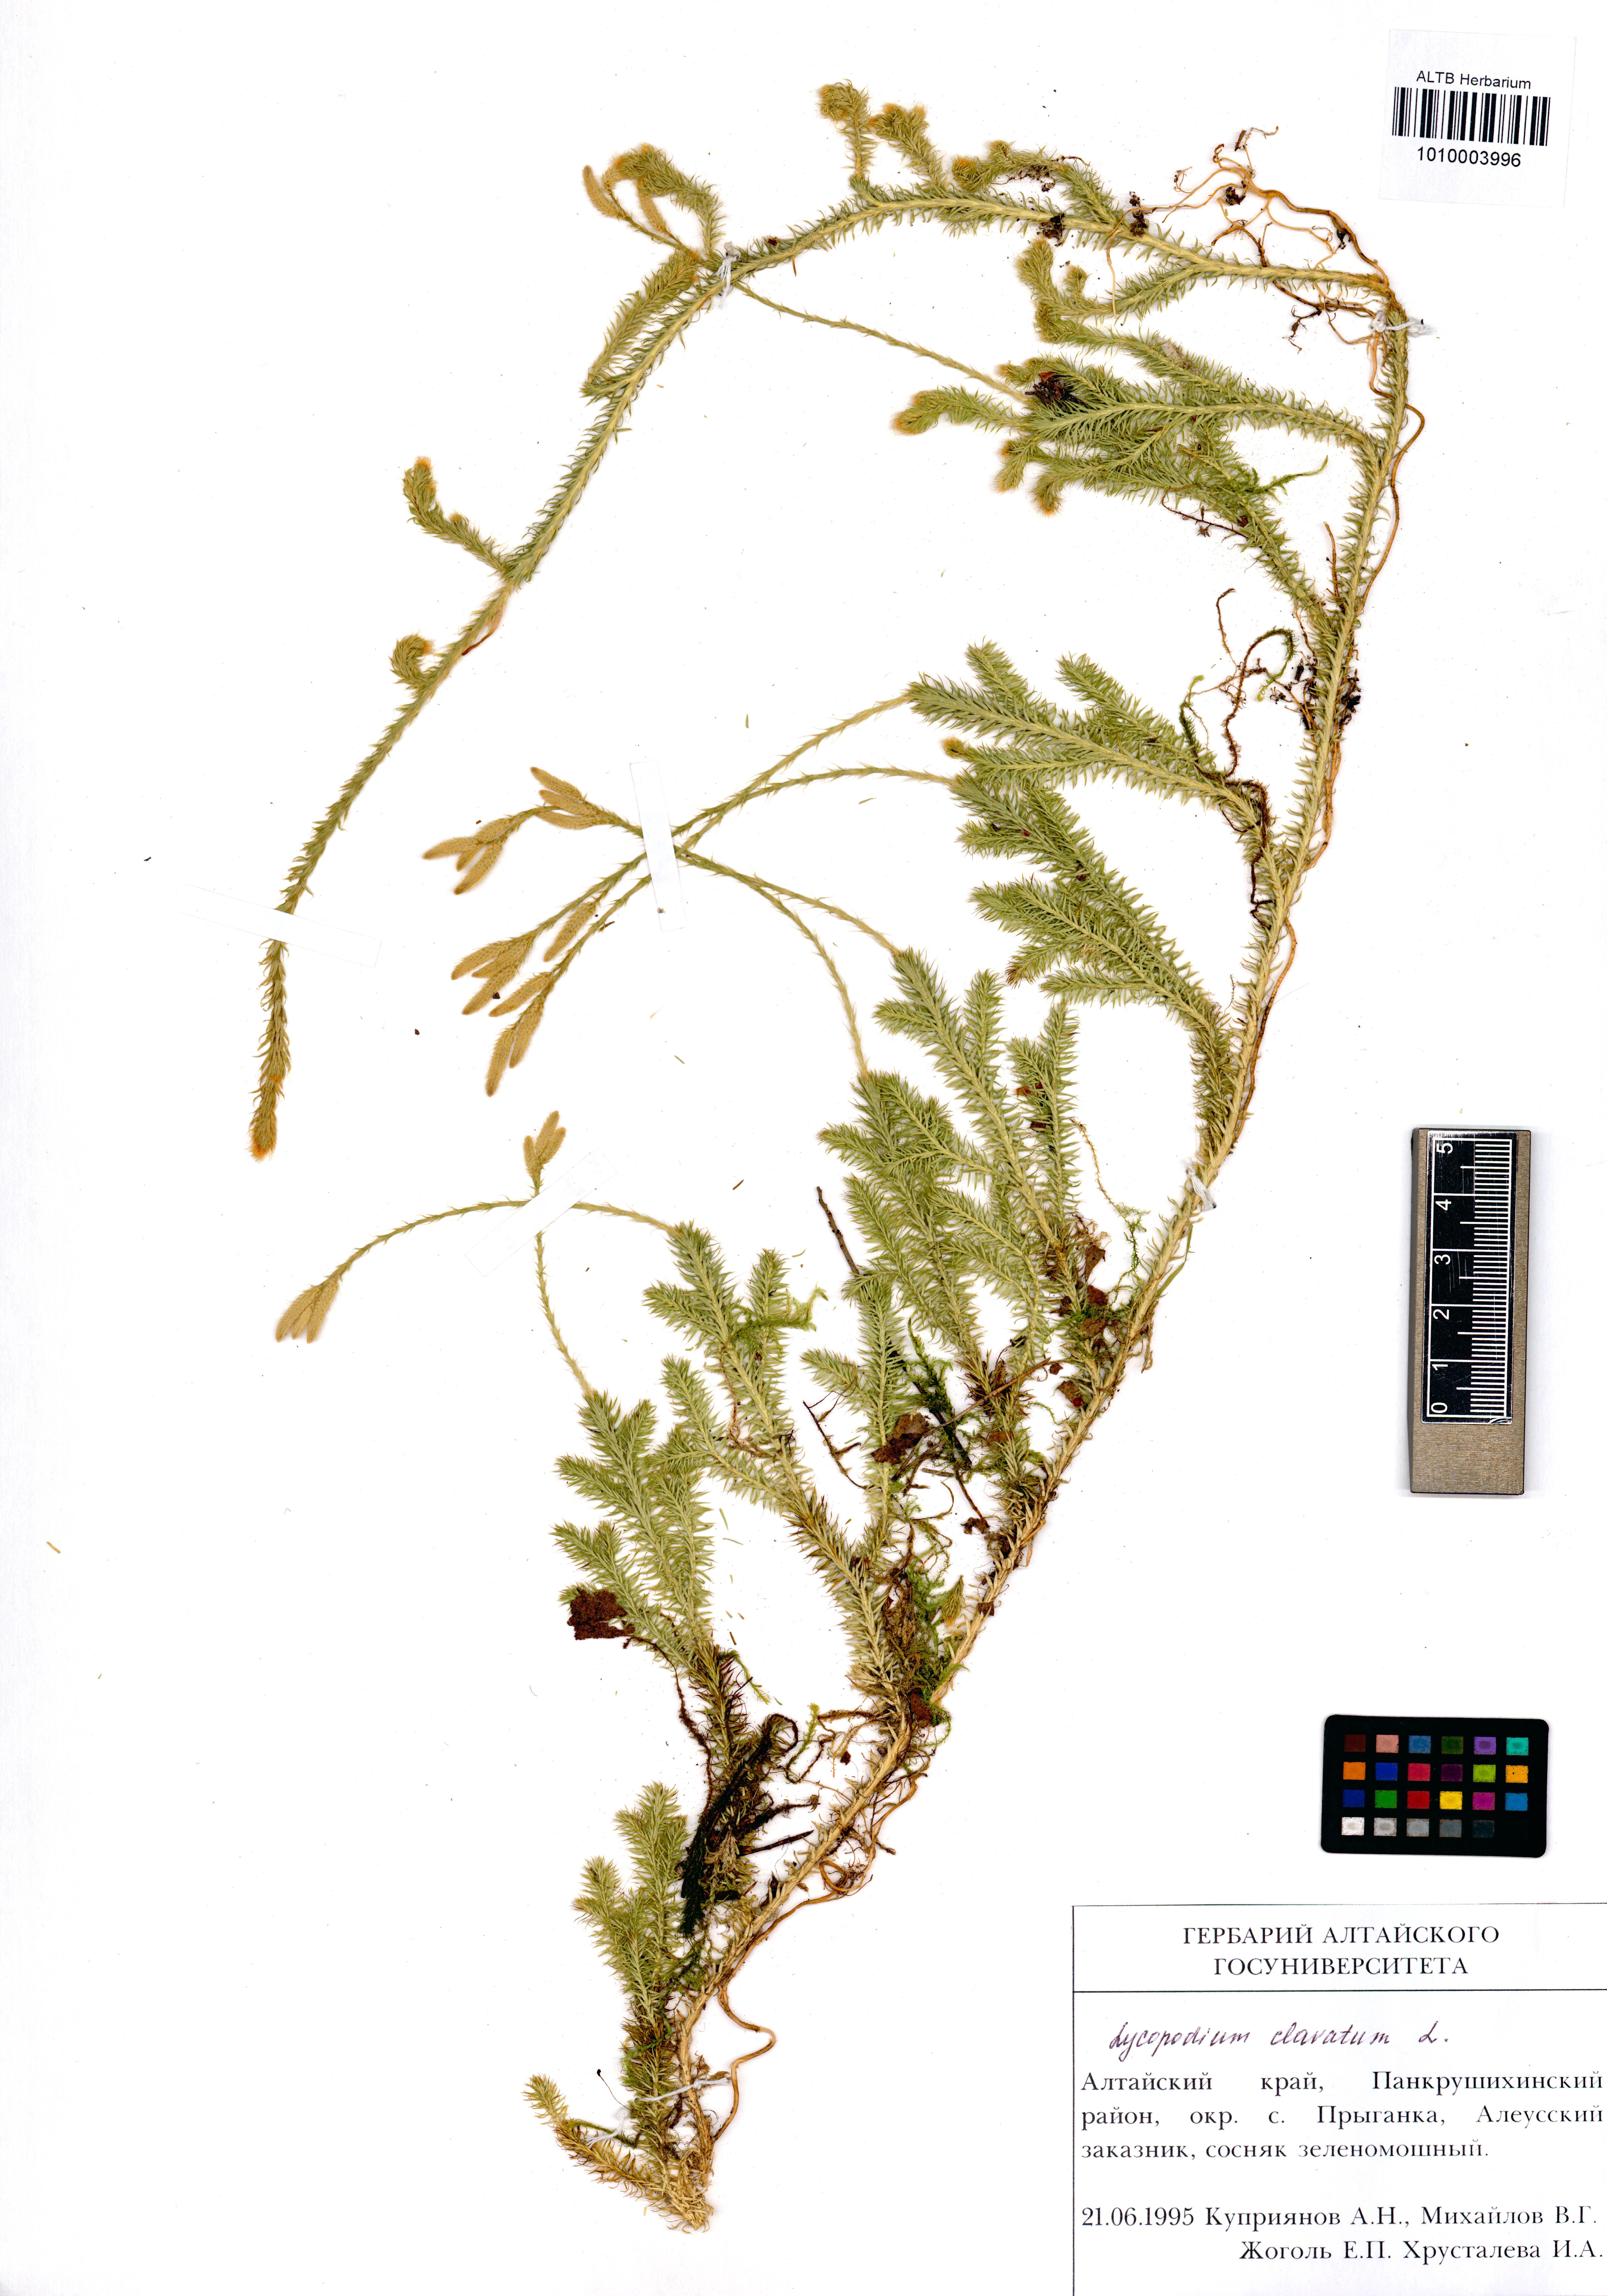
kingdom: Plantae
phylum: Tracheophyta
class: Lycopodiopsida
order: Lycopodiales
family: Lycopodiaceae
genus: Lycopodium
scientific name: Lycopodium clavatum
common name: Stag's-horn clubmoss
